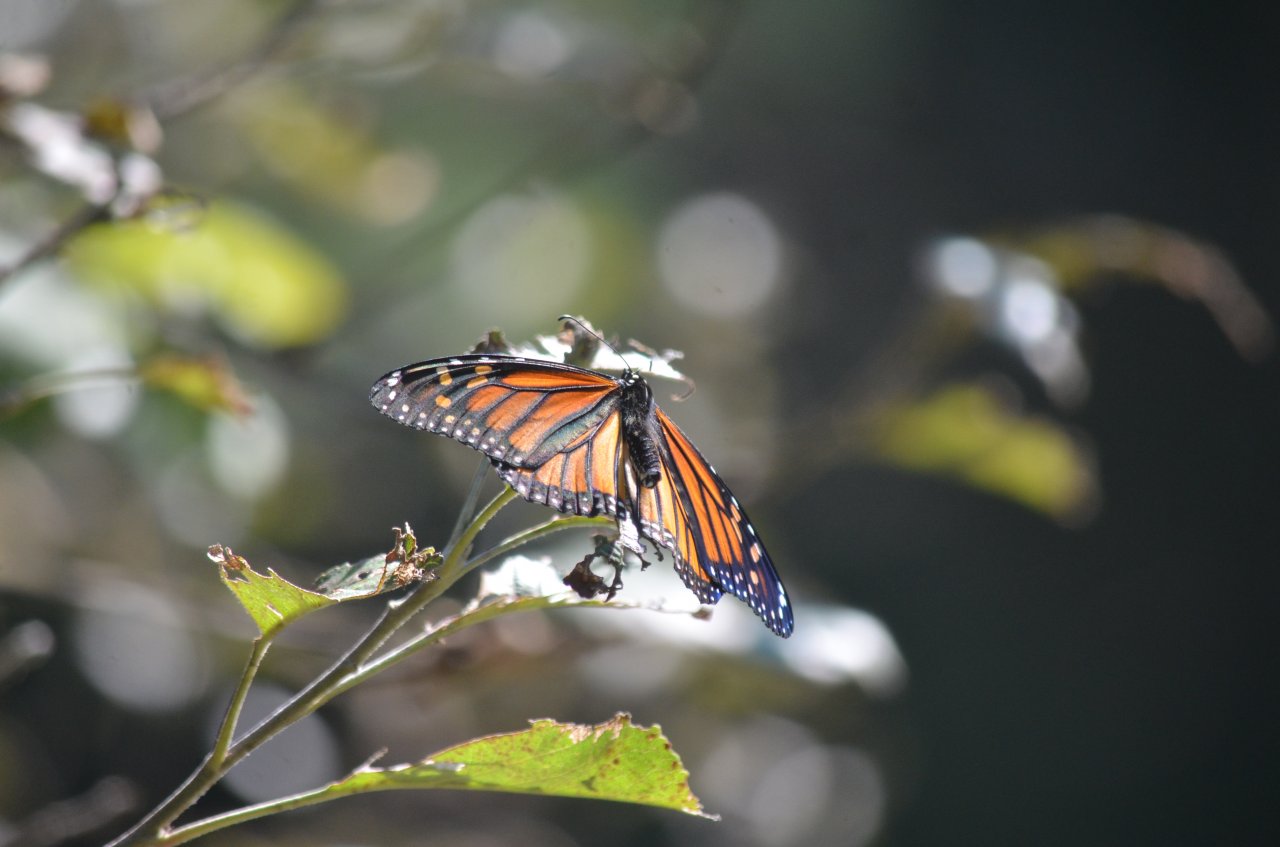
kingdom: Animalia
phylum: Arthropoda
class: Insecta
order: Lepidoptera
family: Nymphalidae
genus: Danaus
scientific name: Danaus plexippus
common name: Monarch
